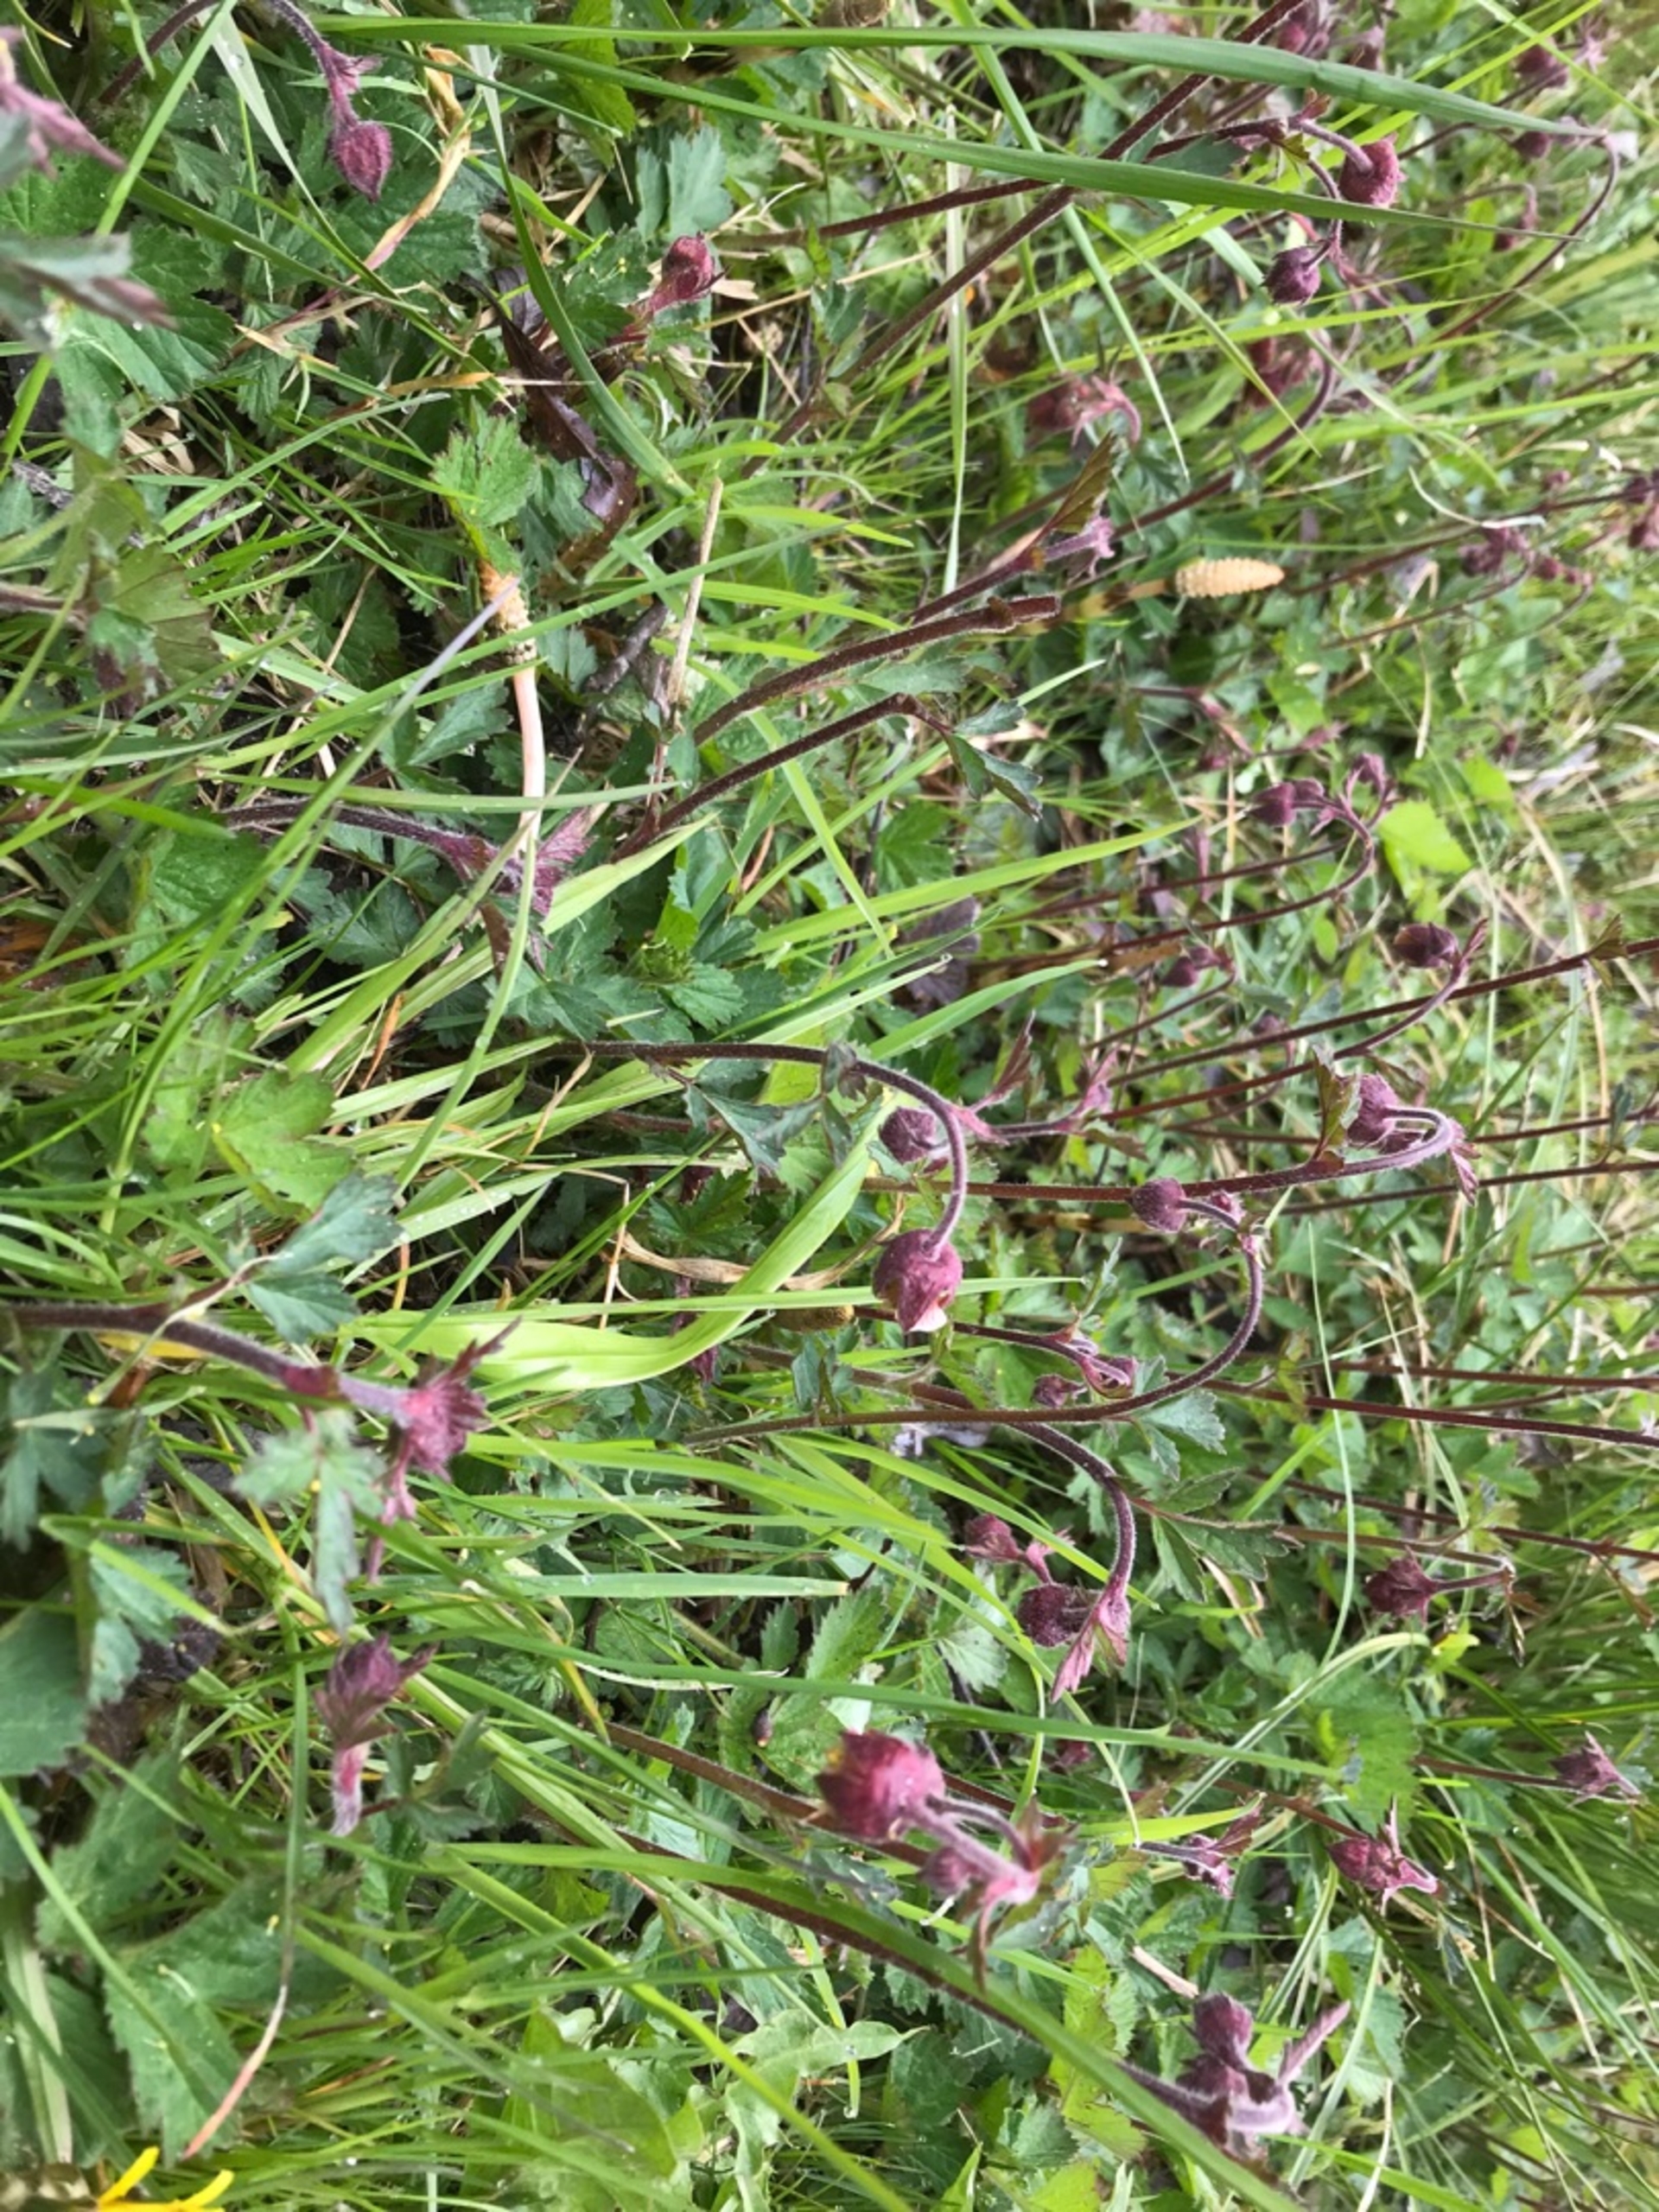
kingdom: Plantae
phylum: Tracheophyta
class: Magnoliopsida
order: Rosales
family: Rosaceae
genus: Geum
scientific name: Geum rivale
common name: Eng-nellikerod
